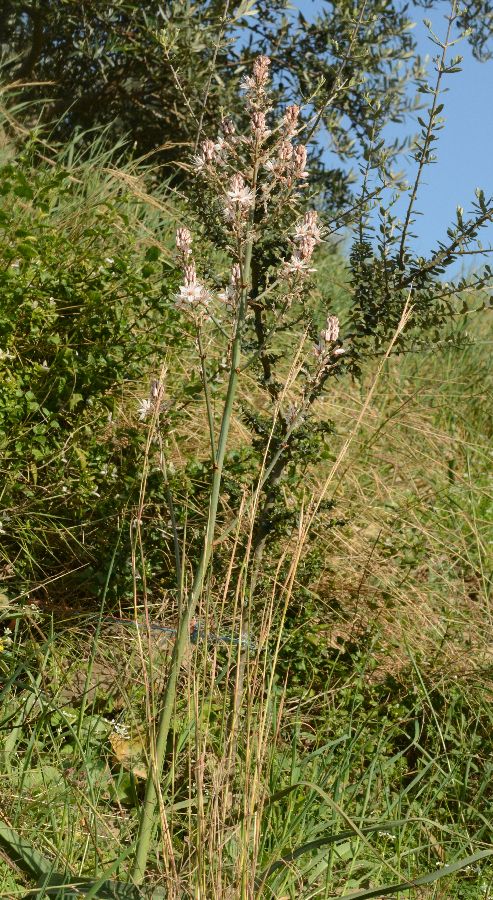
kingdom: Plantae
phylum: Tracheophyta
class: Liliopsida
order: Asparagales
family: Asphodelaceae
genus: Asphodelus
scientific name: Asphodelus ramosus
